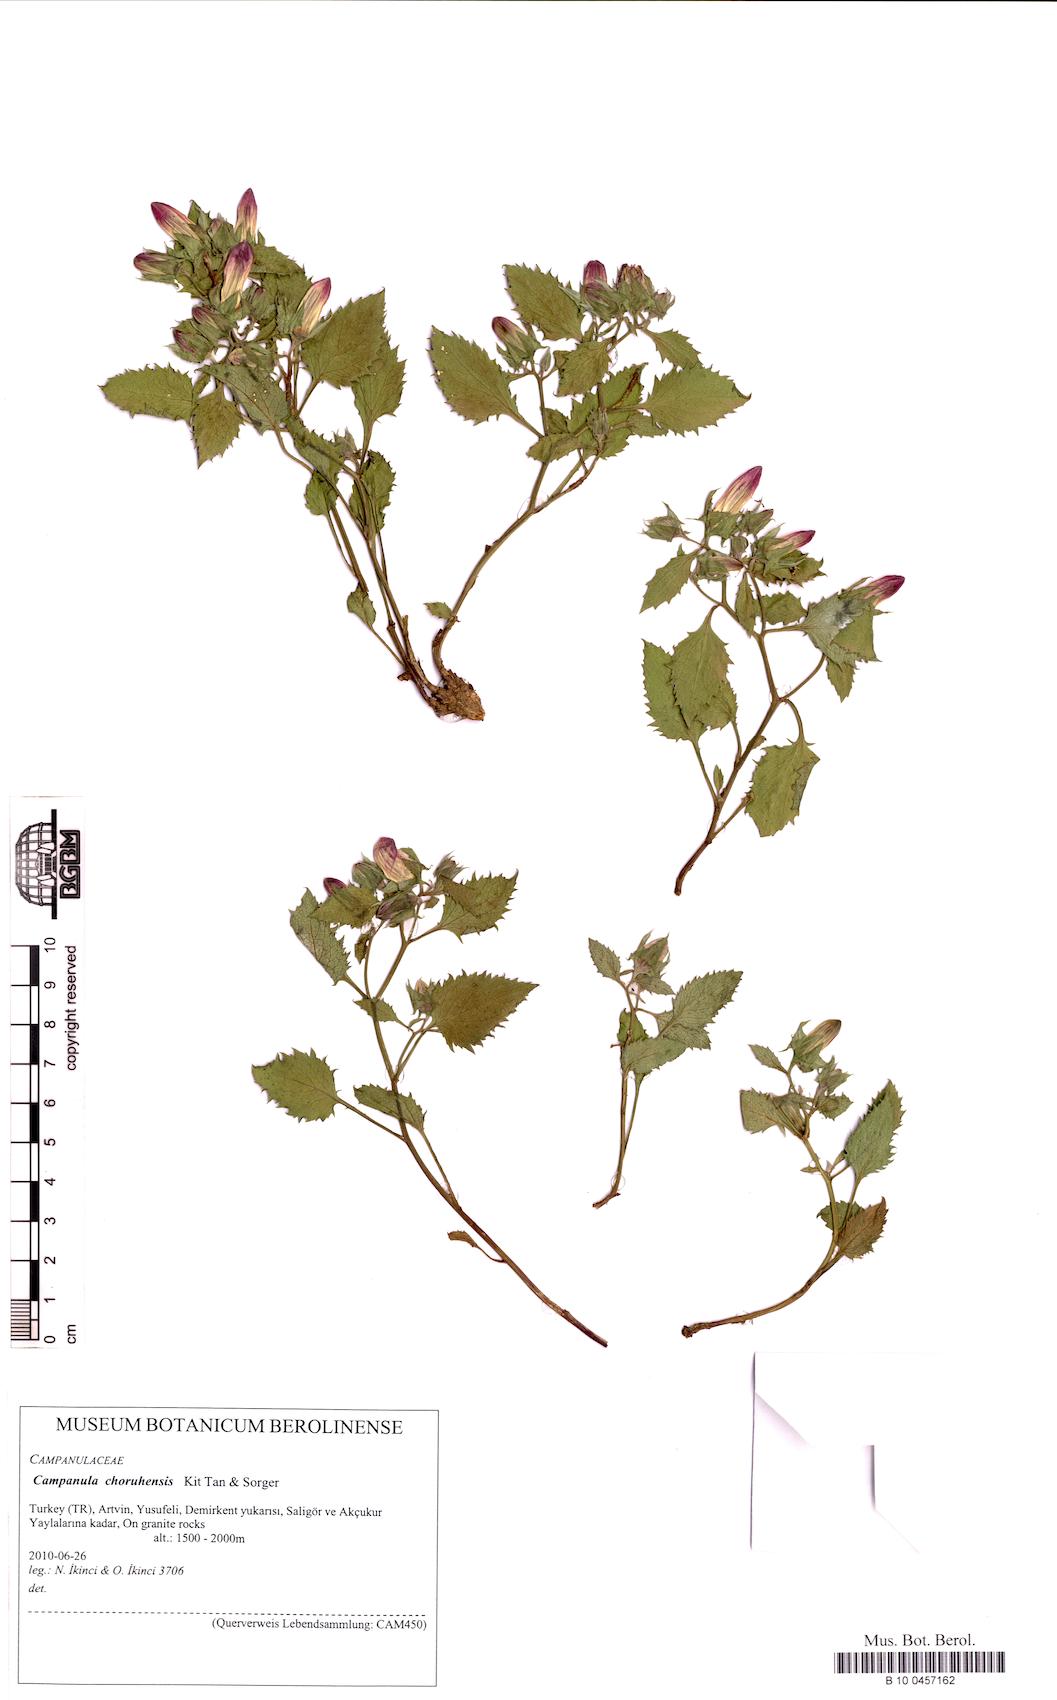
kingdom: Plantae
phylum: Tracheophyta
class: Magnoliopsida
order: Asterales
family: Campanulaceae
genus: Campanula
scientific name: Campanula choruhensis
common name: Choruhian bellflower
